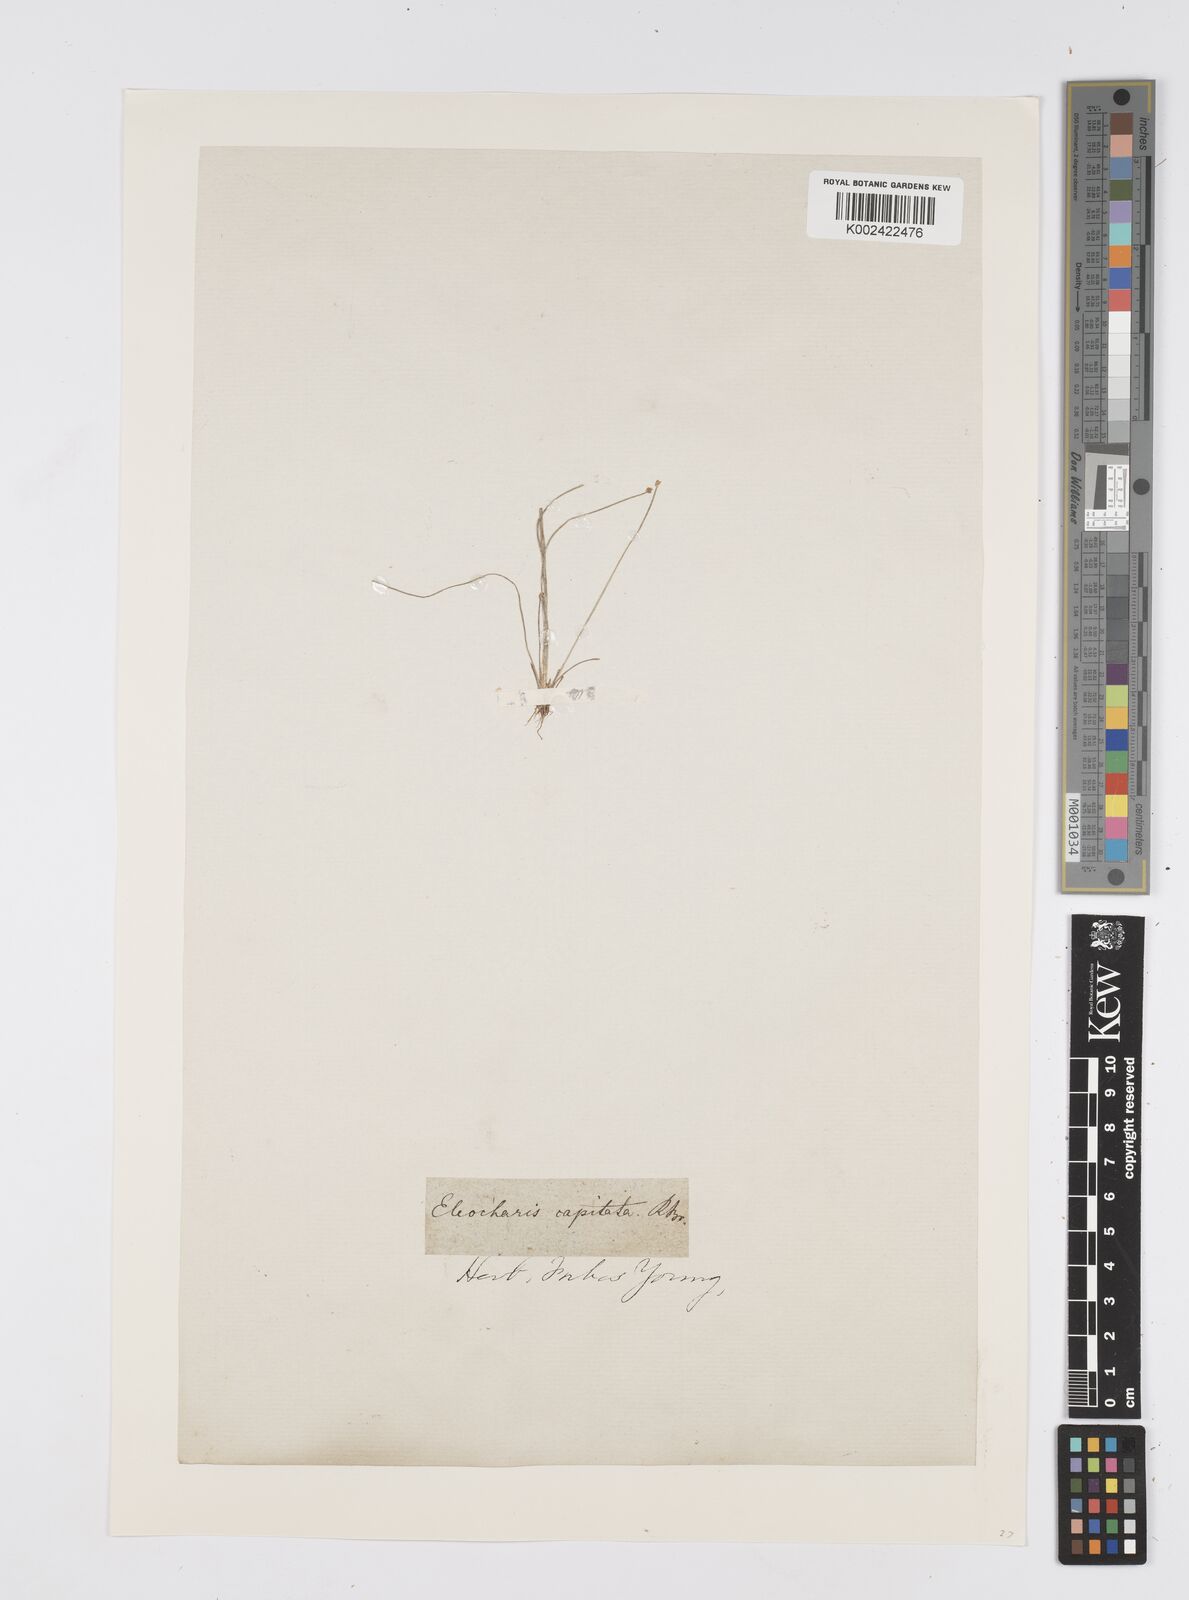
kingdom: Plantae
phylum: Tracheophyta
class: Liliopsida
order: Poales
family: Cyperaceae
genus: Eleocharis
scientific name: Eleocharis geniculata
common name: Canada spikesedge
